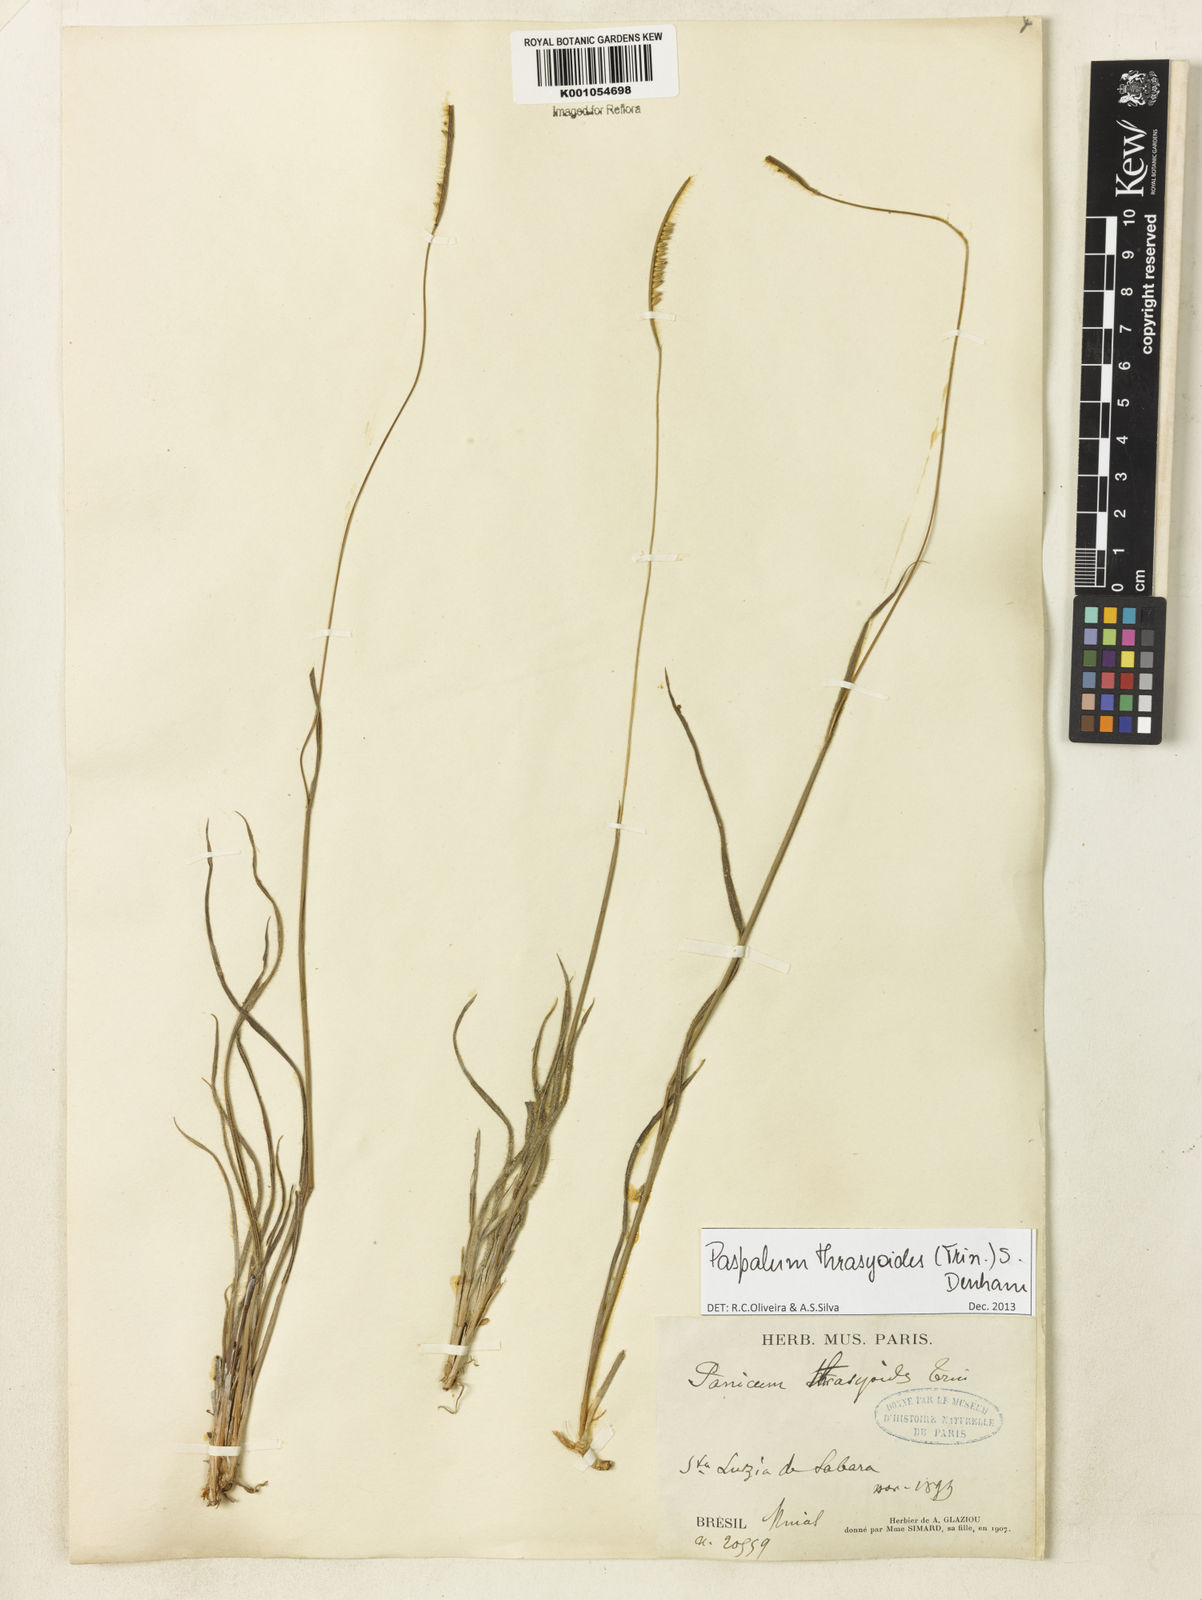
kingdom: Plantae
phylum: Tracheophyta
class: Liliopsida
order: Poales
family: Poaceae
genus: Paspalum
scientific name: Paspalum thrasyoides
